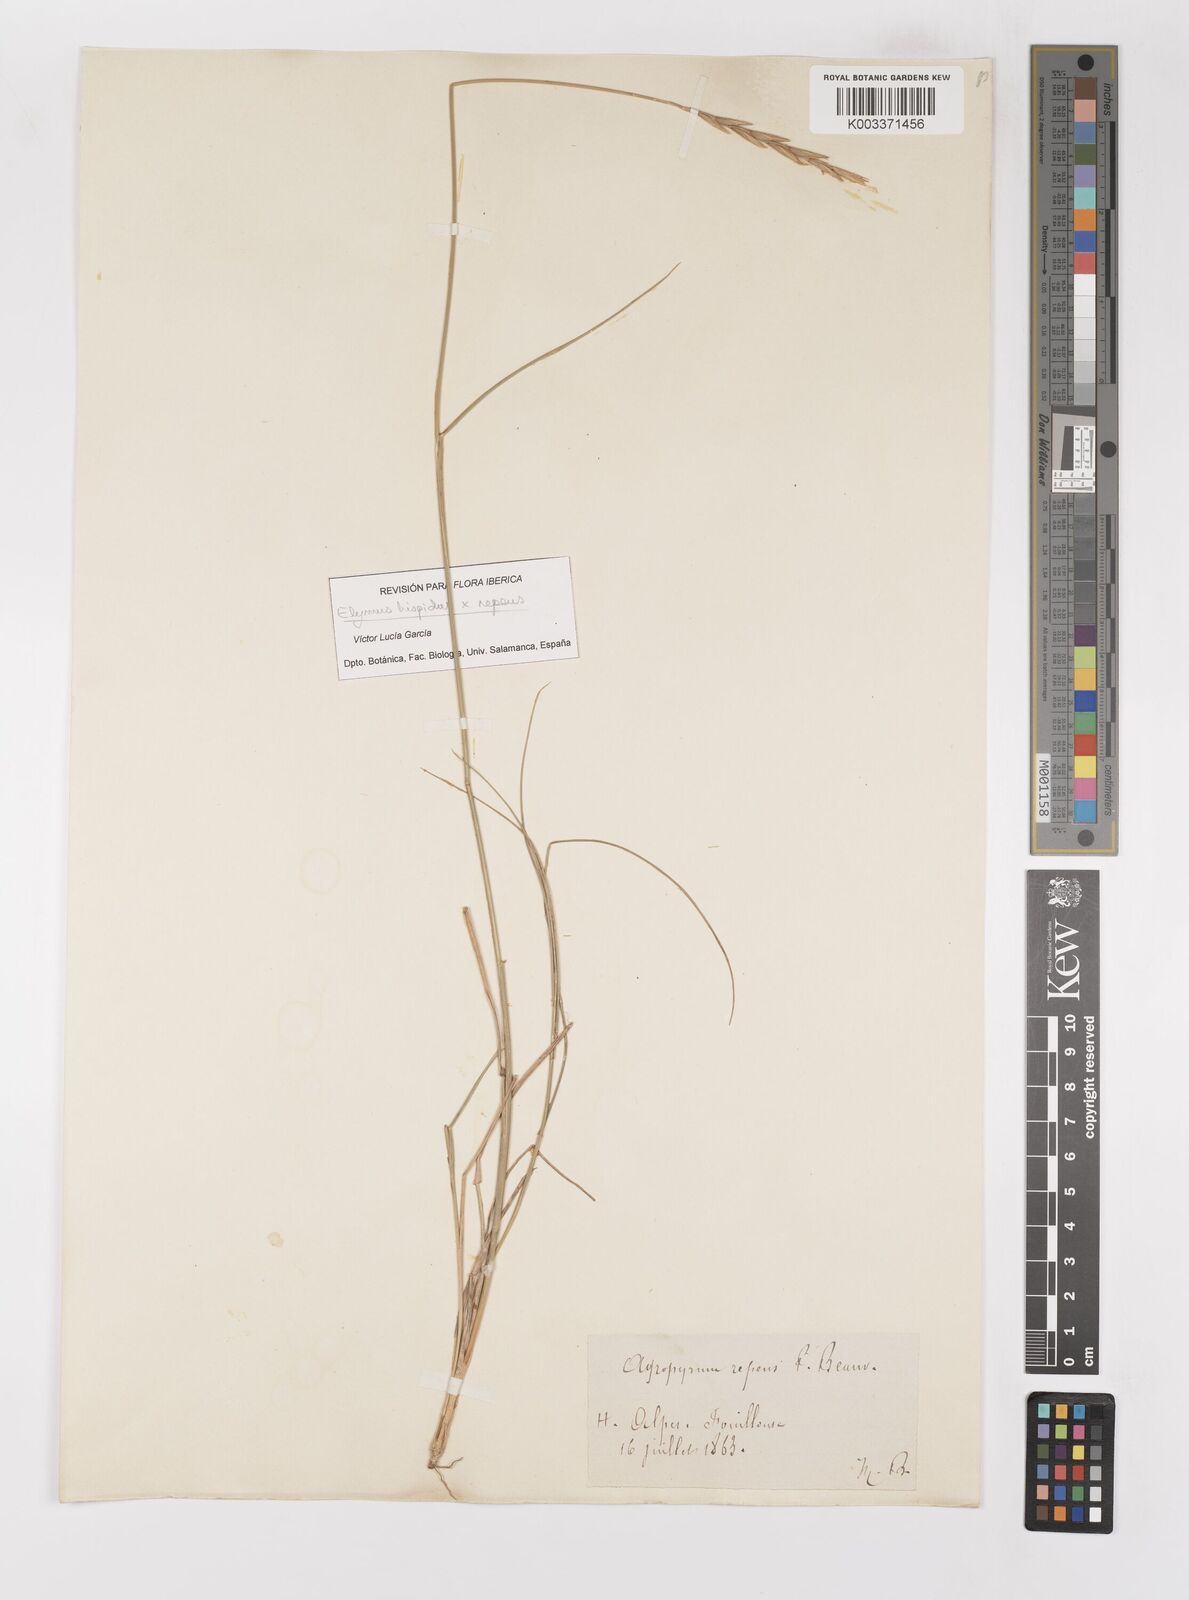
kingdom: Plantae
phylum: Tracheophyta
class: Liliopsida
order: Poales
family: Poaceae
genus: Elymus
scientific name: Elymus repens
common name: Quackgrass
